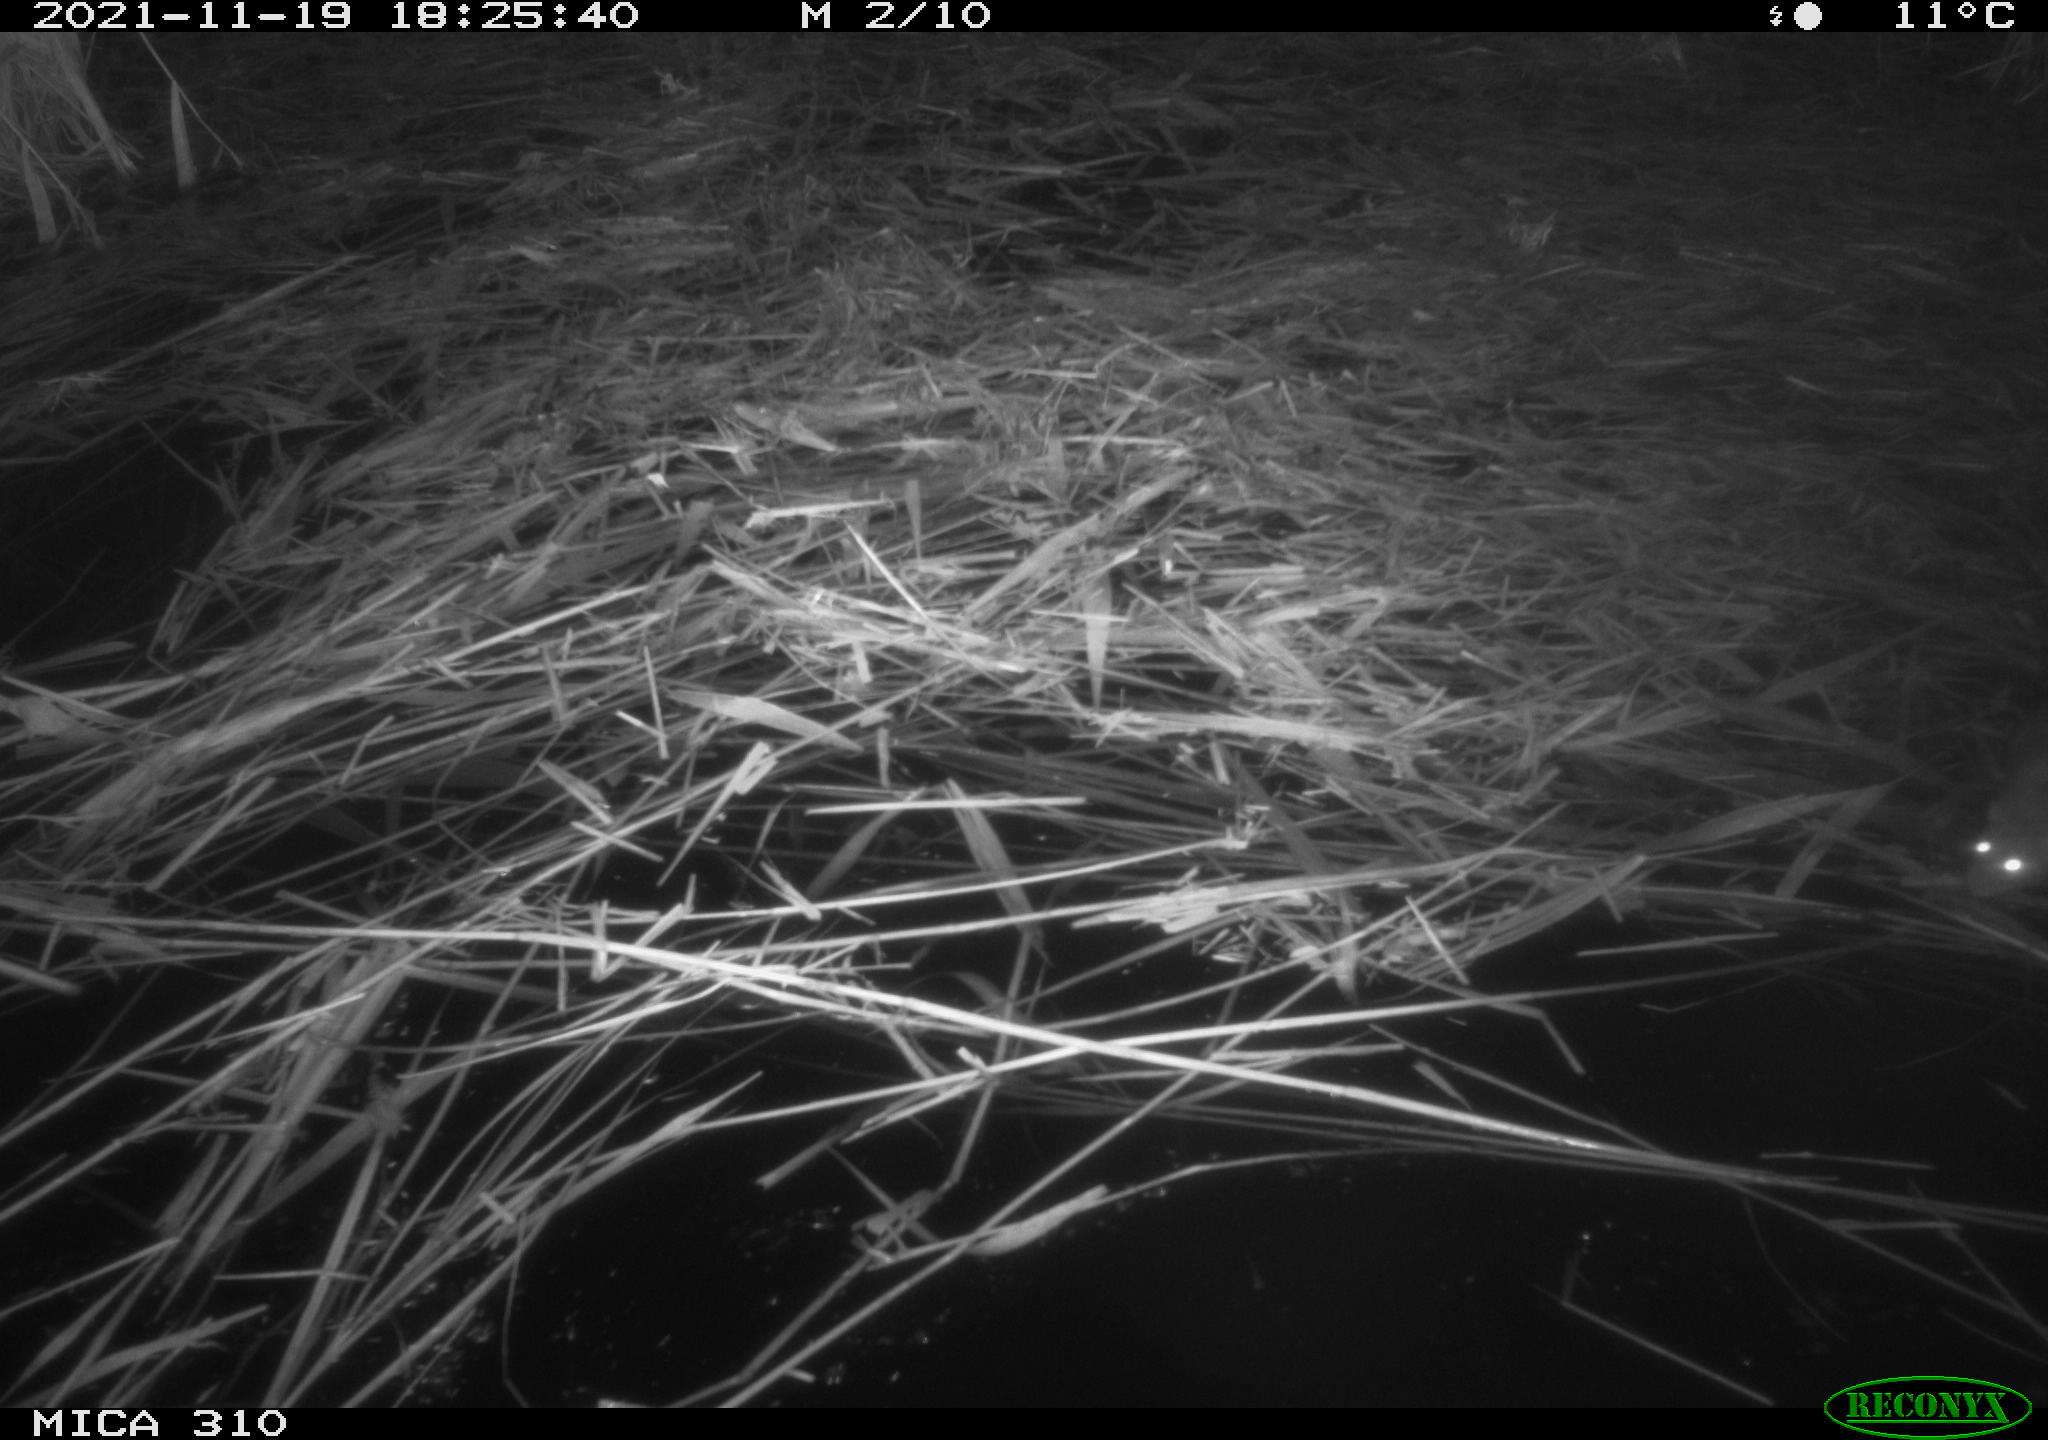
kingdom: Animalia
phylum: Chordata
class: Mammalia
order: Rodentia
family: Muridae
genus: Rattus
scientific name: Rattus norvegicus
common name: Brown rat
